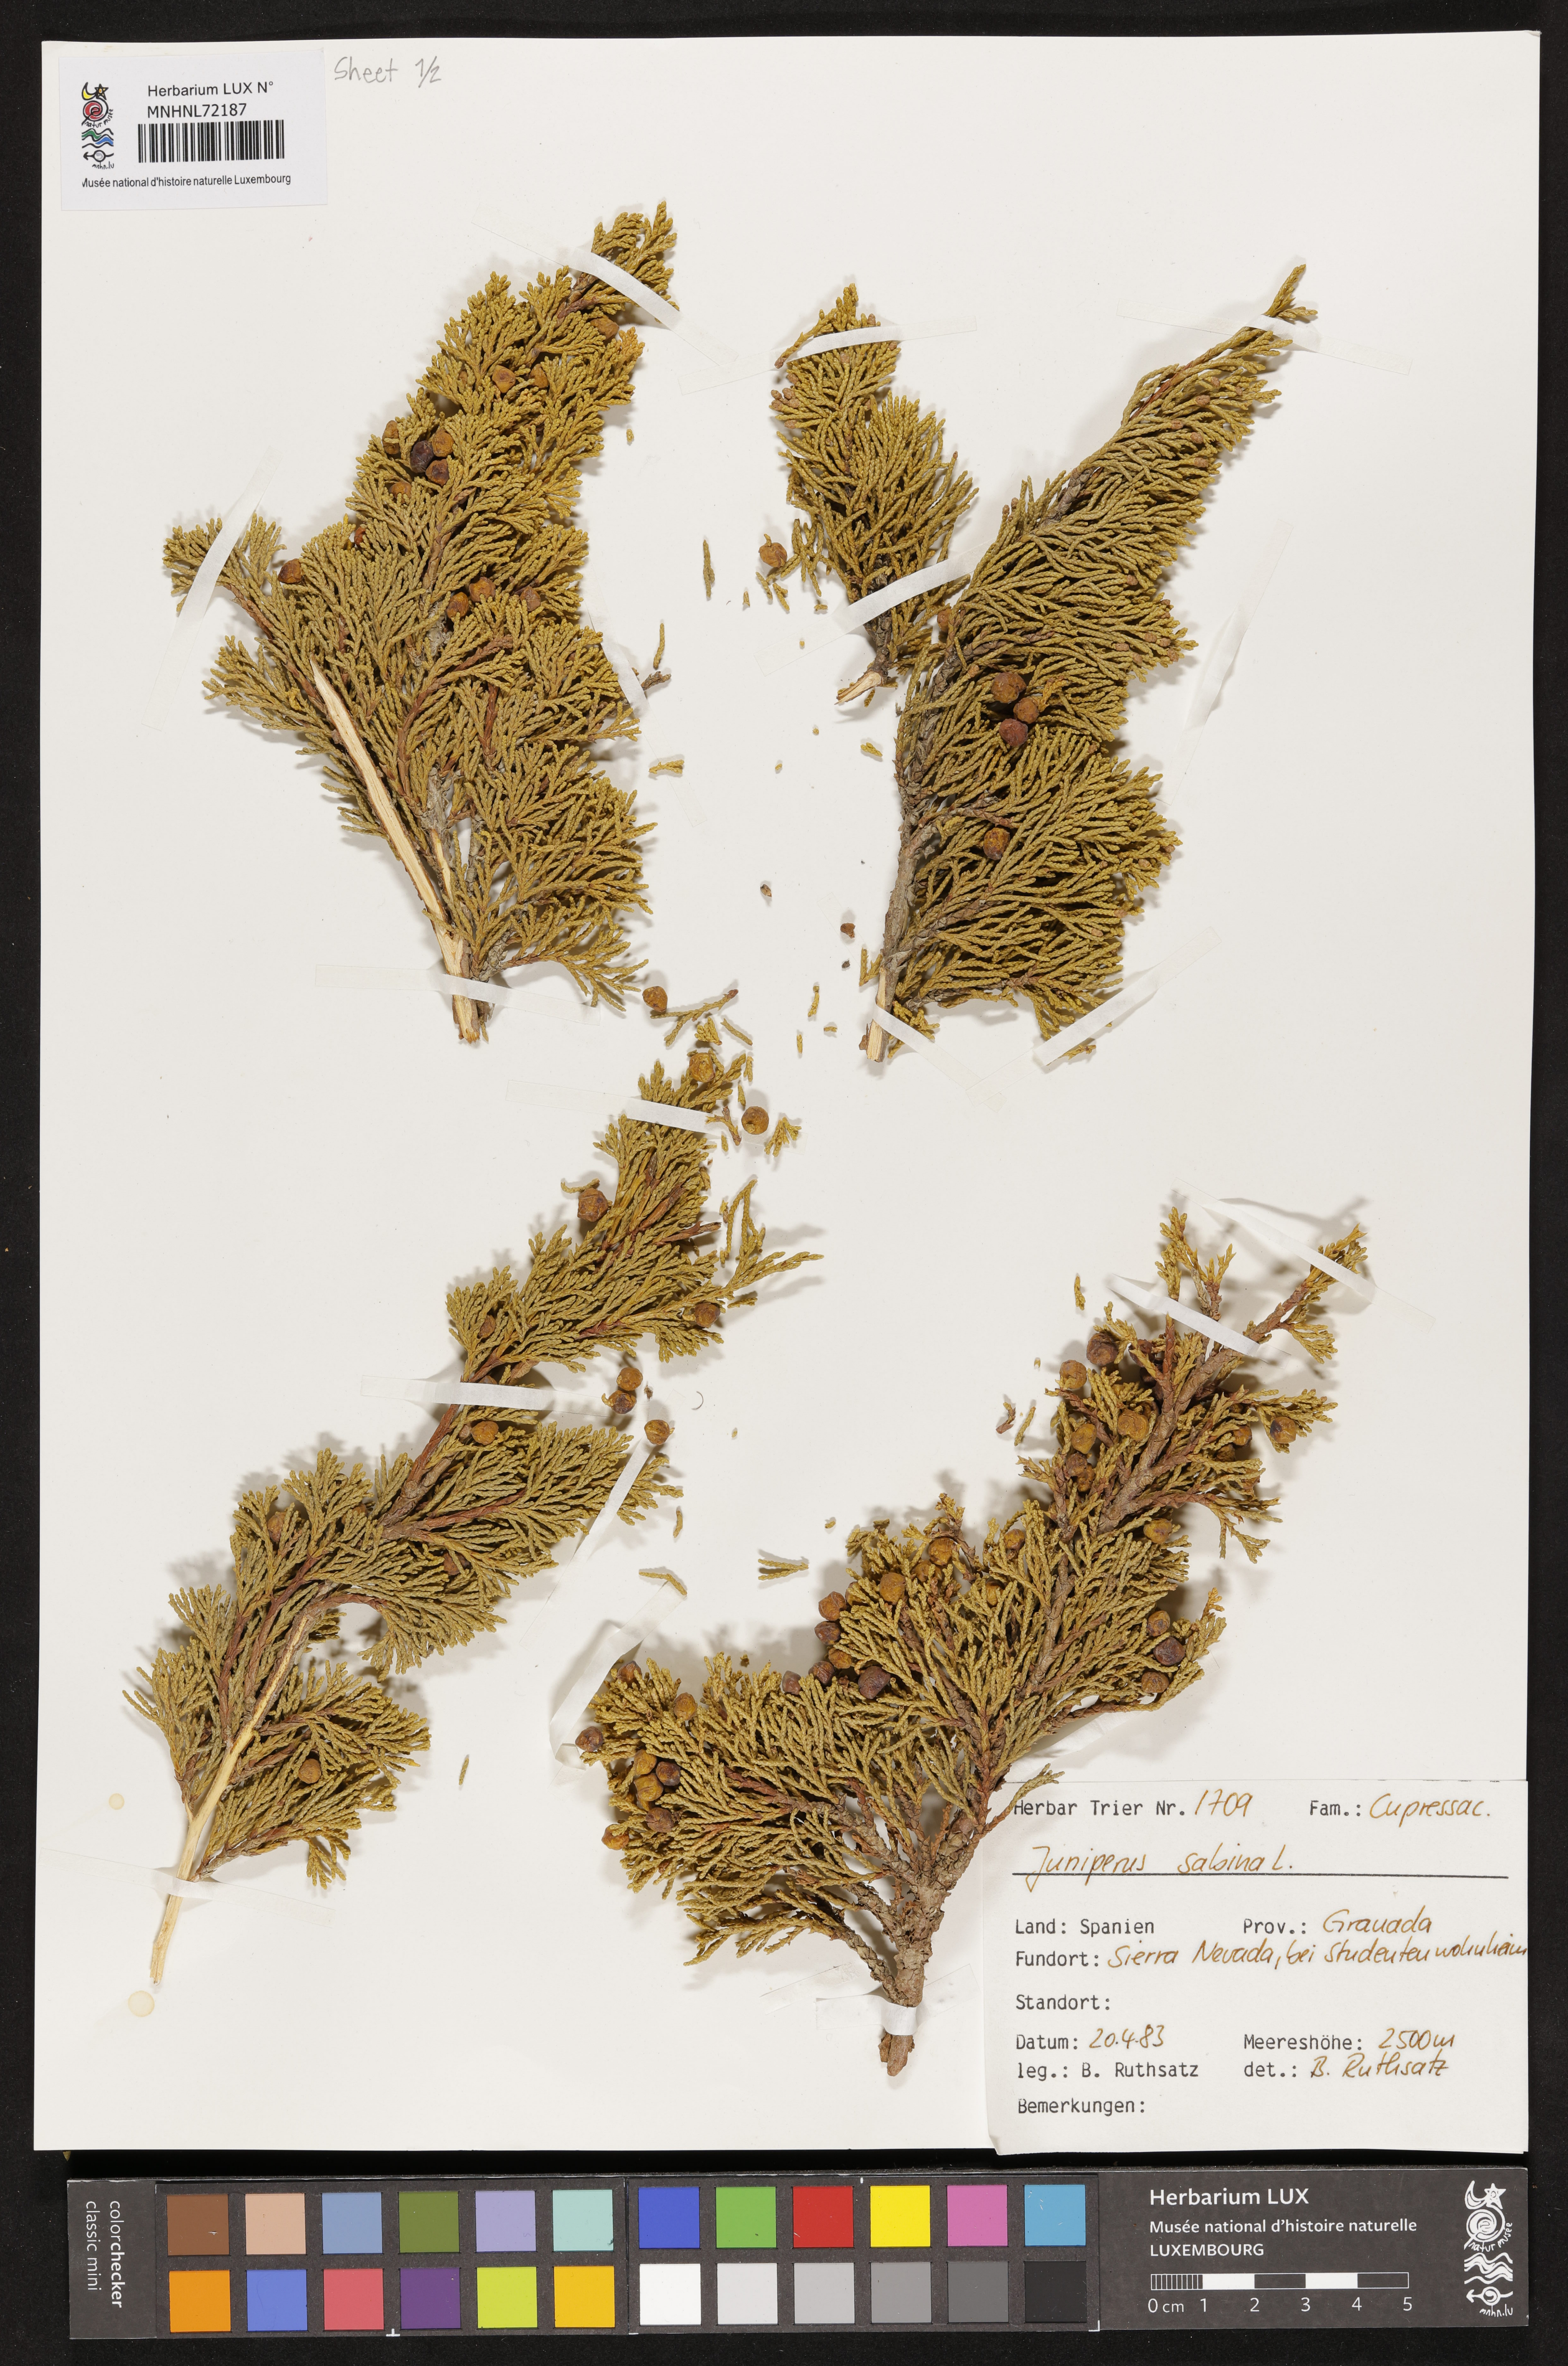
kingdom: Plantae
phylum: Tracheophyta
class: Pinopsida
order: Pinales
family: Cupressaceae
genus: Juniperus
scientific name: Juniperus sabina
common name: Savin
